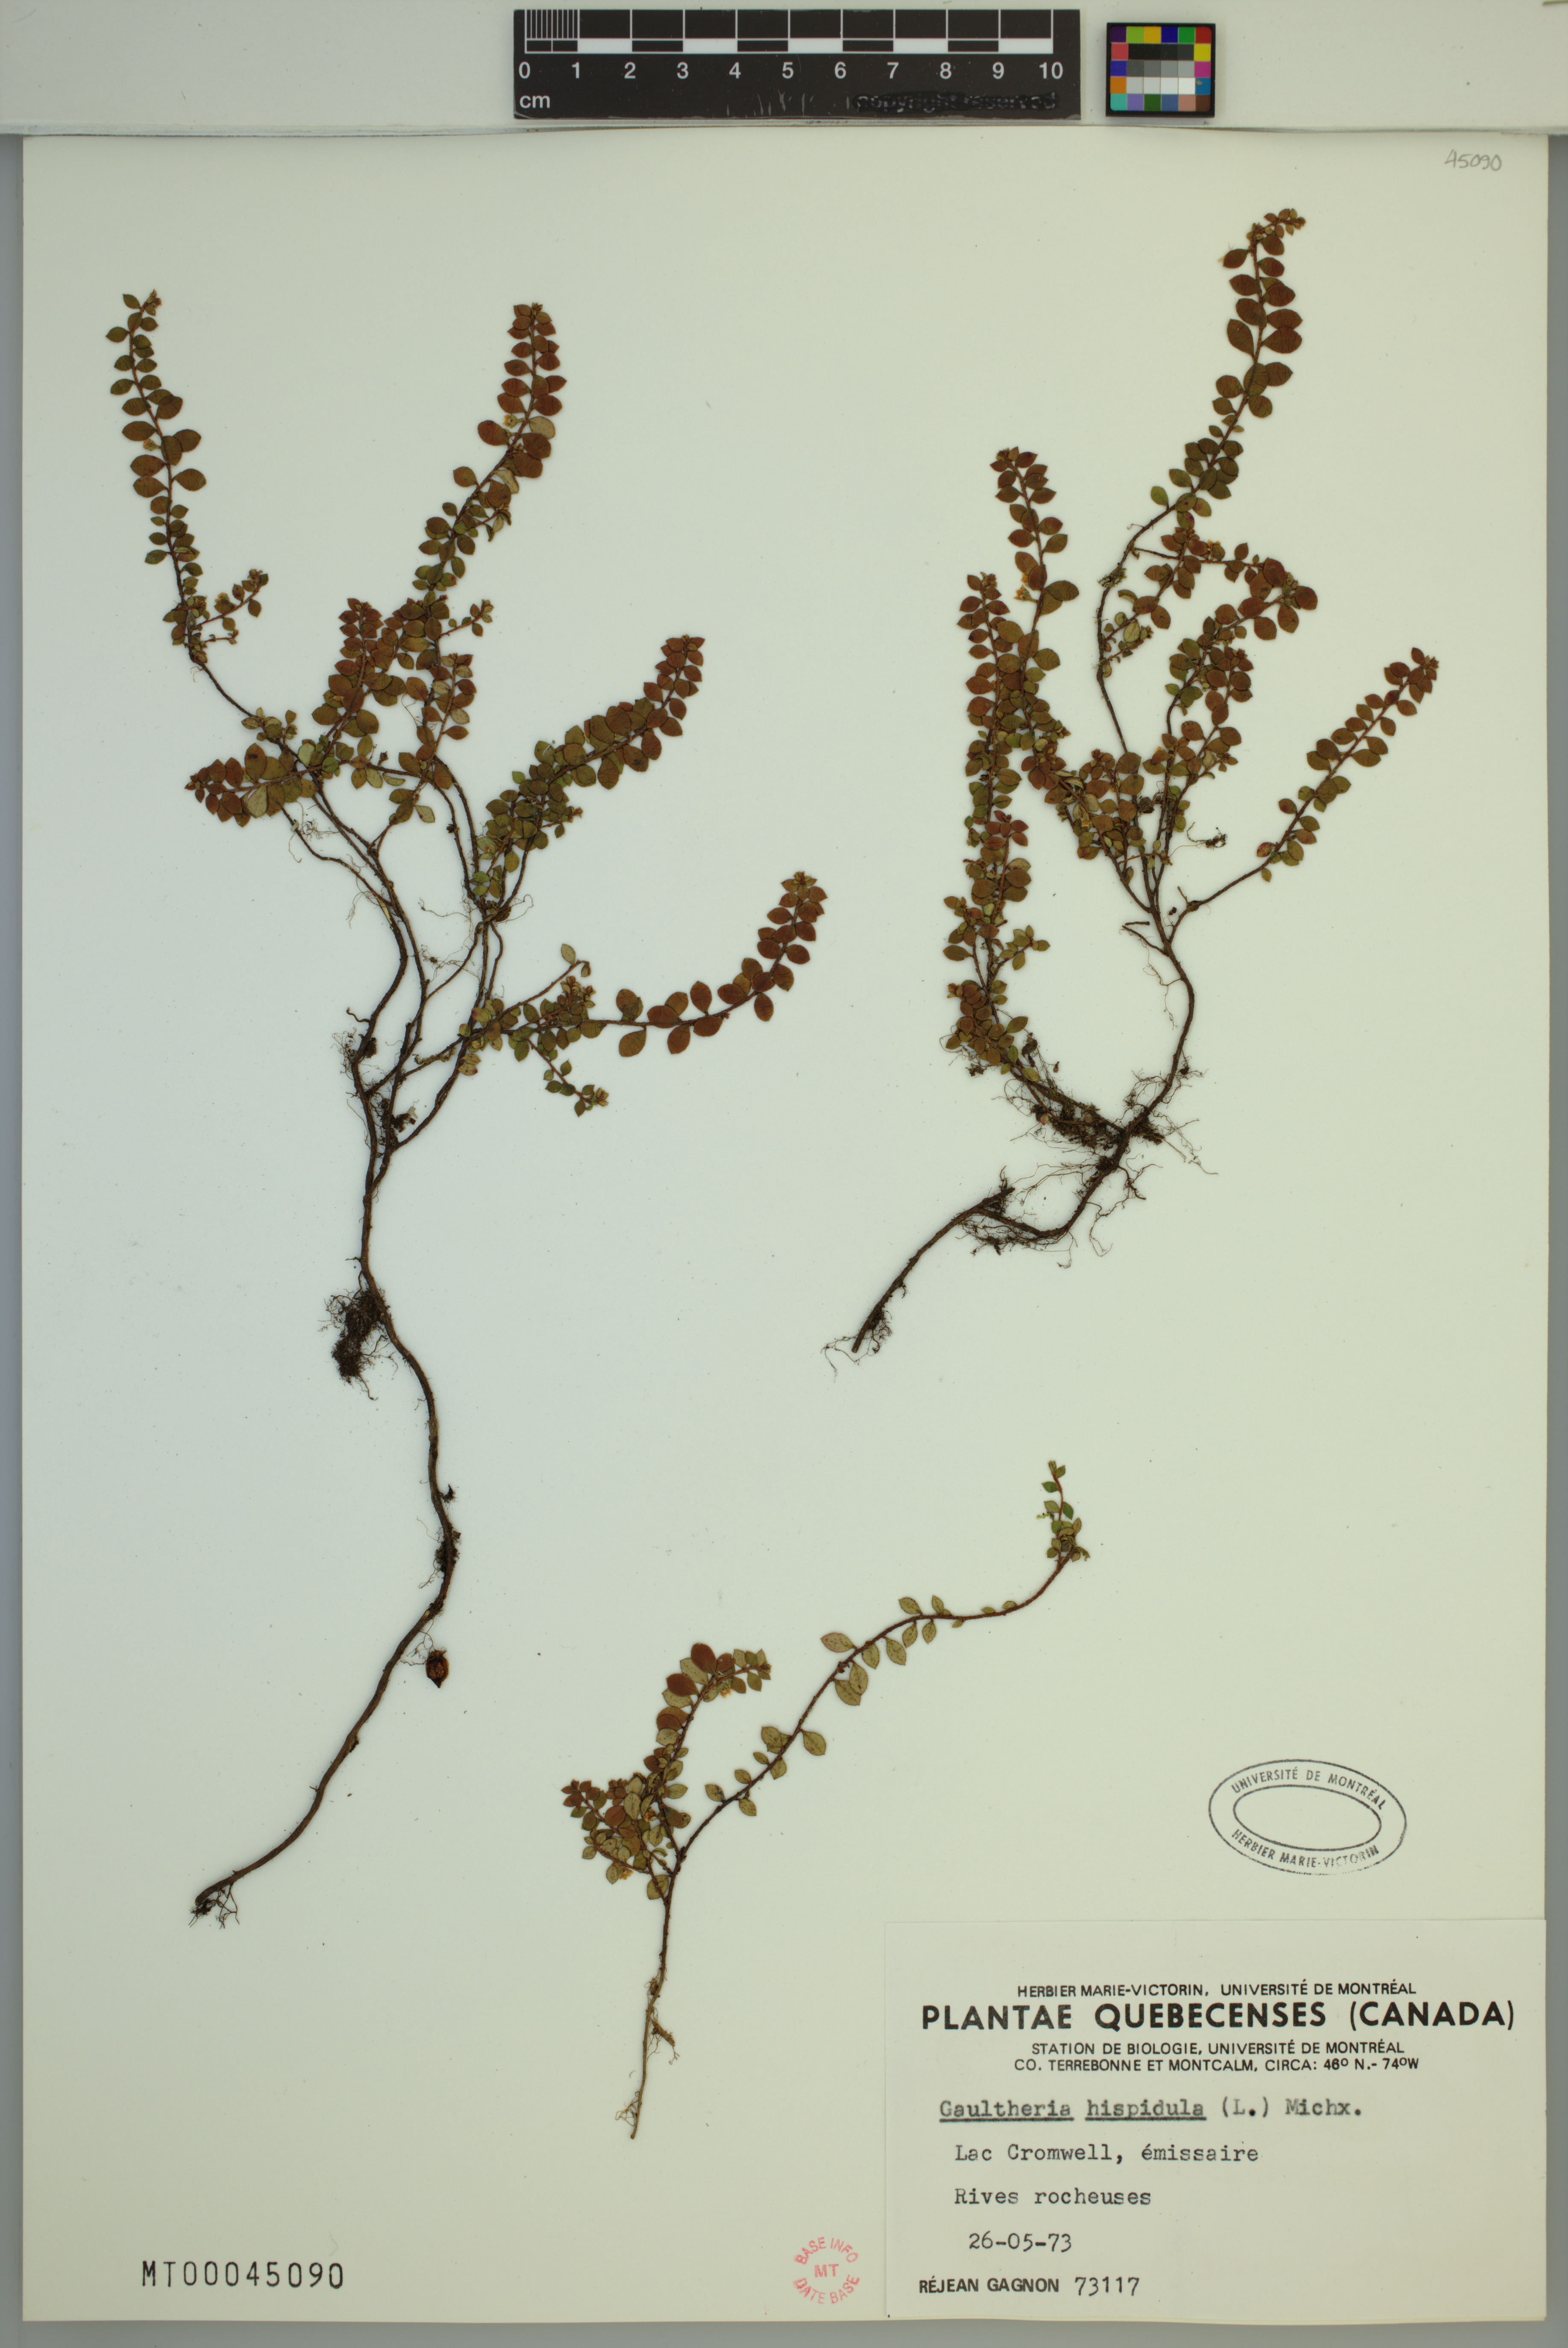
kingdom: Plantae
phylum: Tracheophyta
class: Magnoliopsida
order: Ericales
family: Ericaceae
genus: Gaultheria
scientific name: Gaultheria hispidula
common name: Cancer wintergreen
